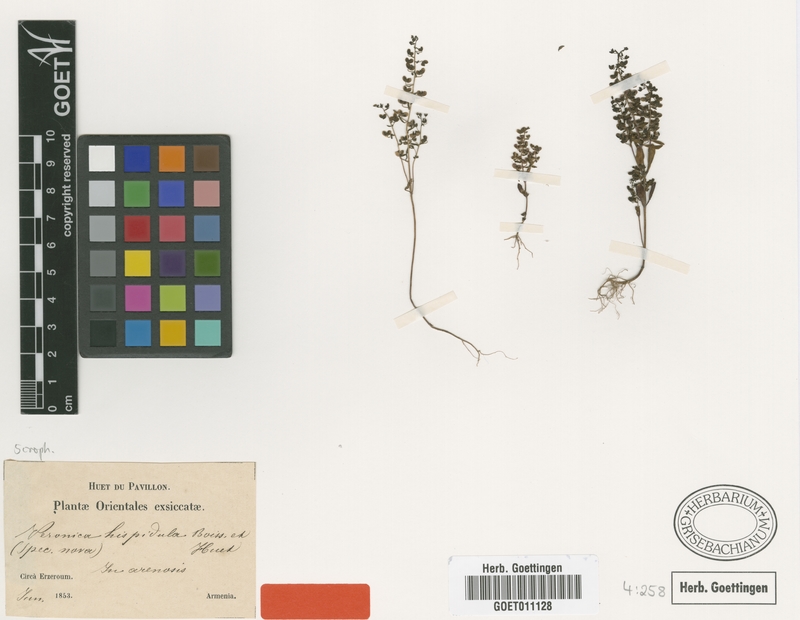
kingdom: Plantae
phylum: Tracheophyta
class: Magnoliopsida
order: Lamiales
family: Plantaginaceae
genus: Veronica
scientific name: Veronica hispidula
